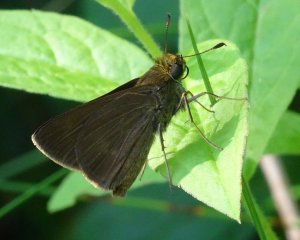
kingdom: Animalia
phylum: Arthropoda
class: Insecta
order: Lepidoptera
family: Hesperiidae
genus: Euphyes
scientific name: Euphyes vestris
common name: Dun Skipper
